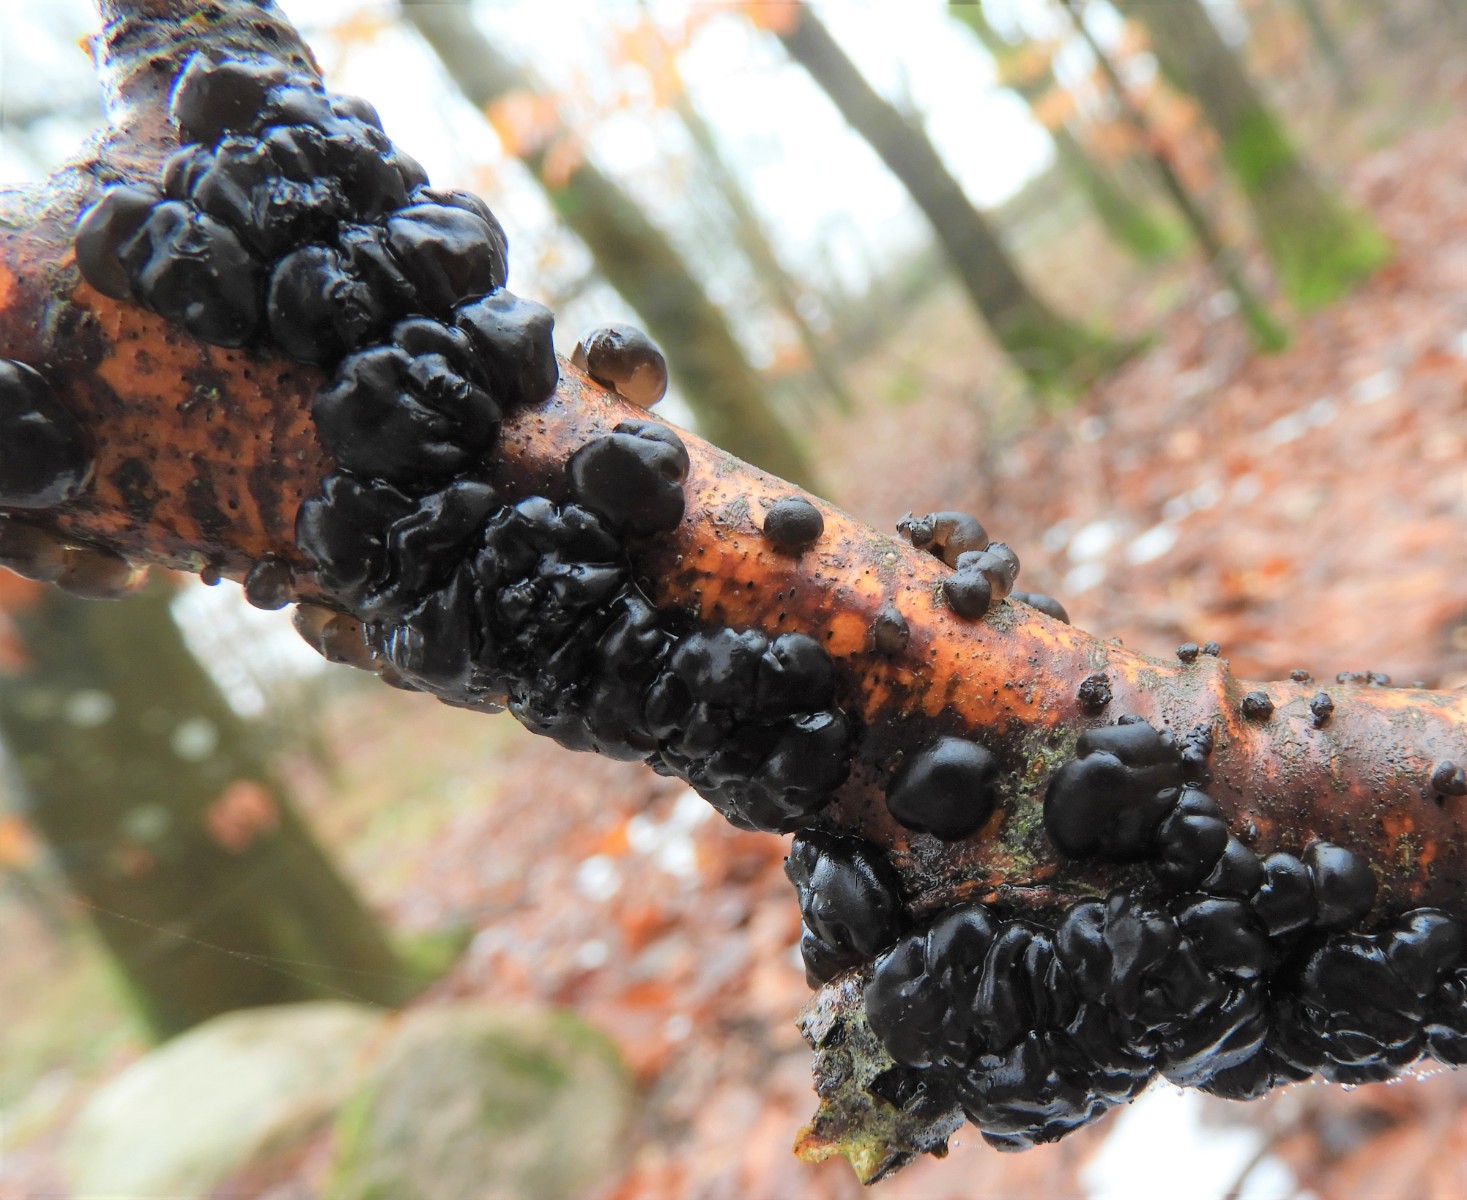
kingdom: Fungi
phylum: Basidiomycota
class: Agaricomycetes
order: Auriculariales
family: Auriculariaceae
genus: Exidia
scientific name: Exidia nigricans
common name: almindelig bævretop
